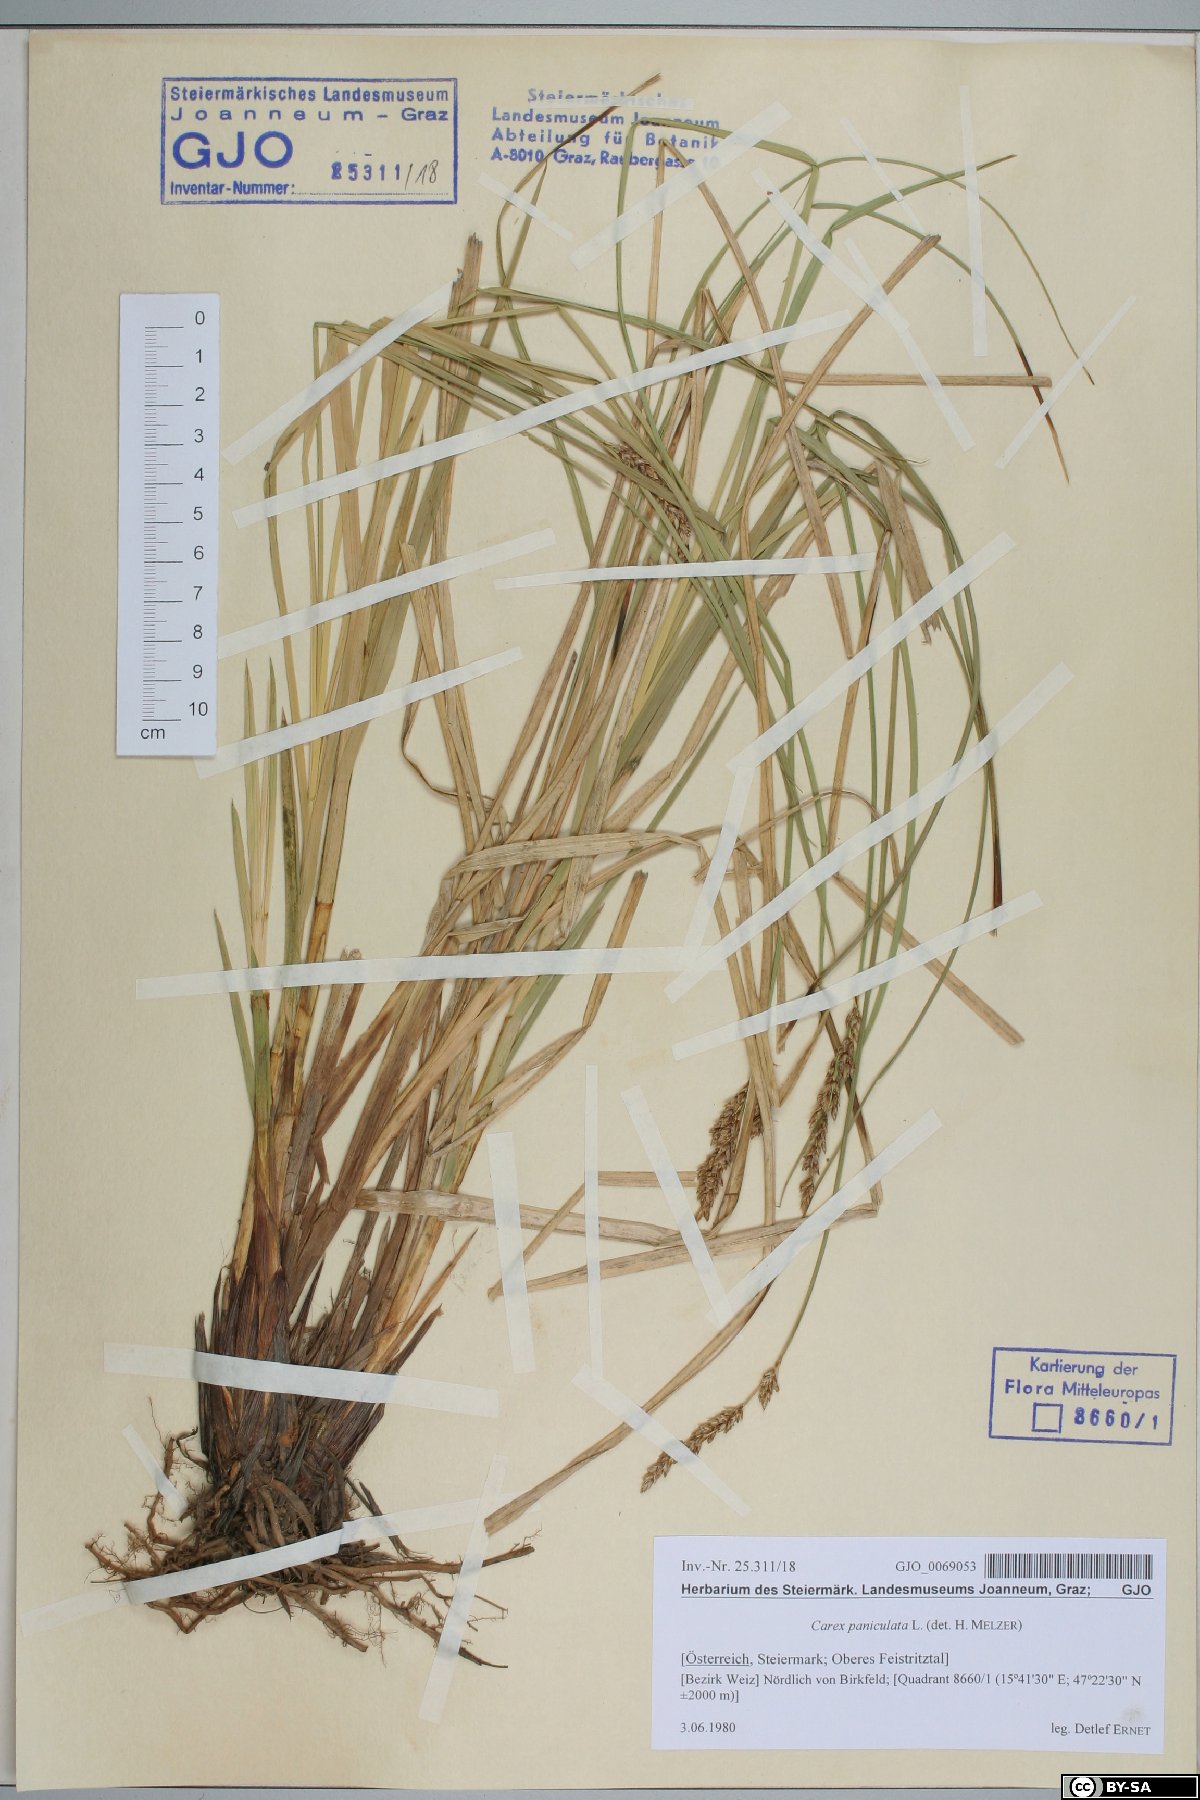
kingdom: Plantae
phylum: Tracheophyta
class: Liliopsida
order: Poales
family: Cyperaceae
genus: Carex
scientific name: Carex paniculata
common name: Greater tussock-sedge
